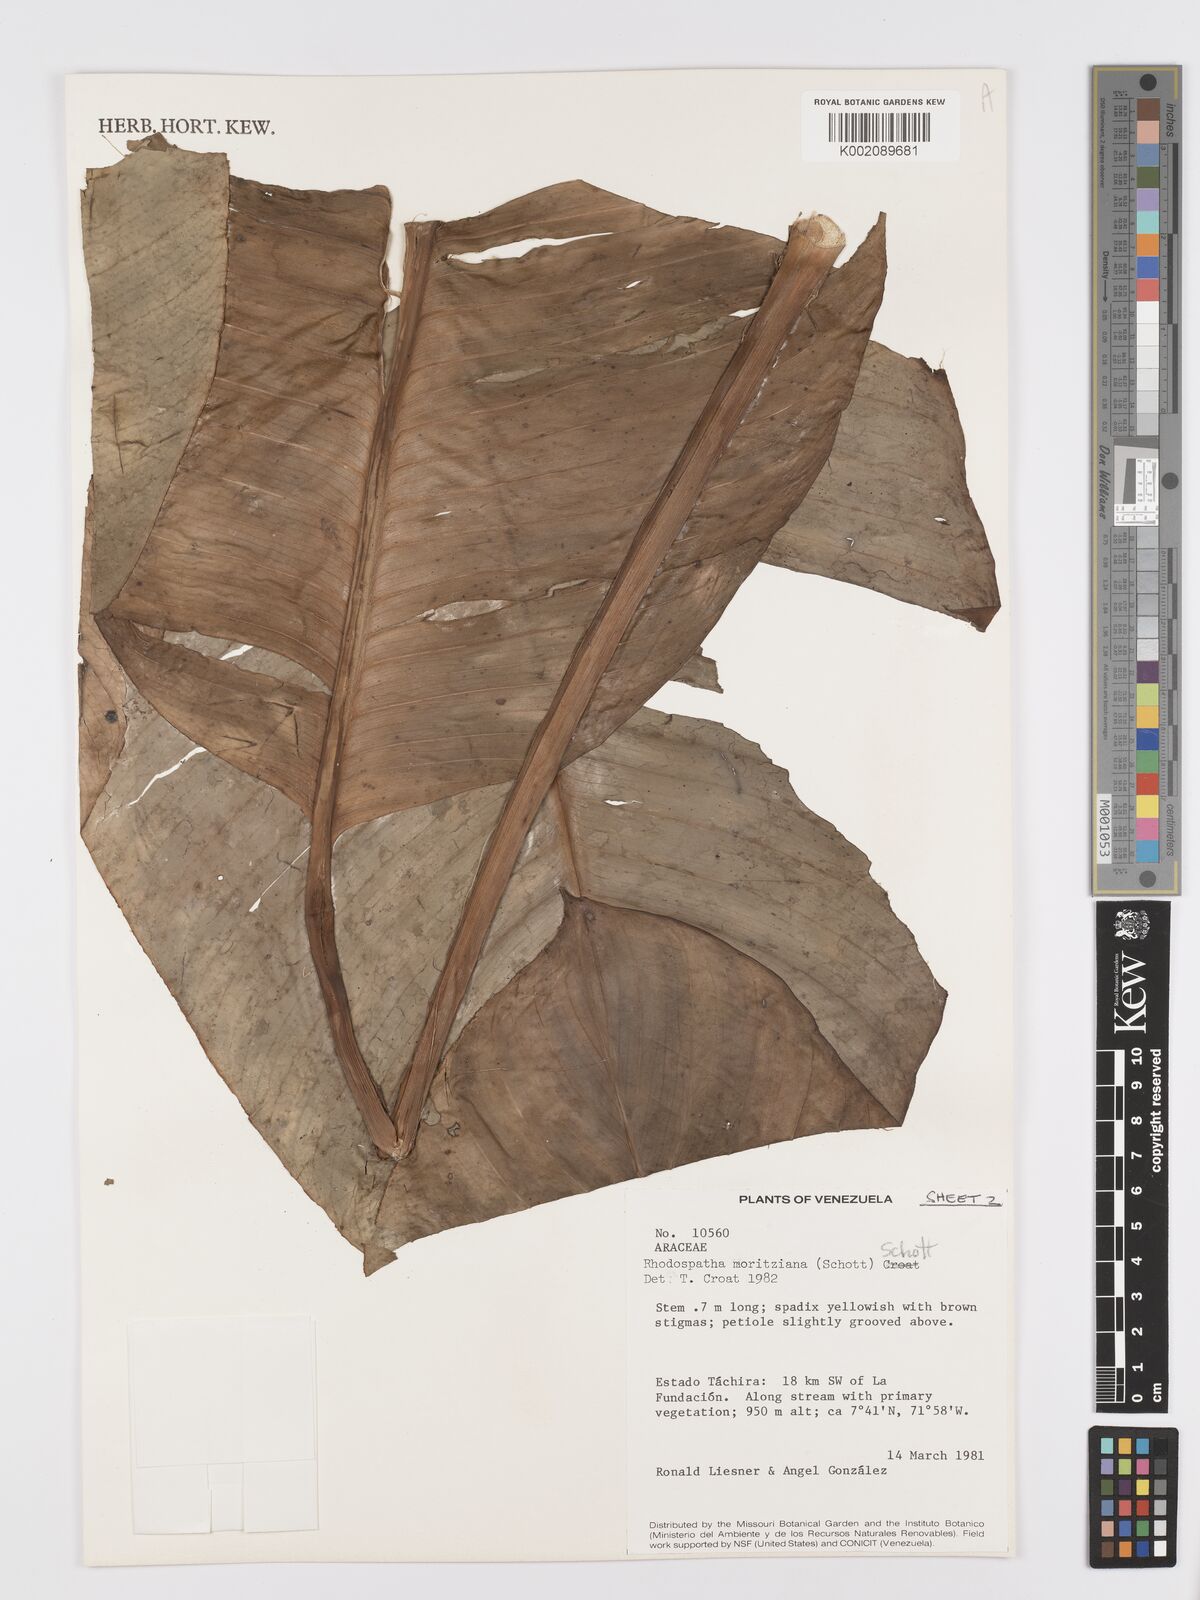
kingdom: Plantae
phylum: Tracheophyta
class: Liliopsida
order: Alismatales
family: Araceae
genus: Rhodospatha
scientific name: Rhodospatha moritziana
